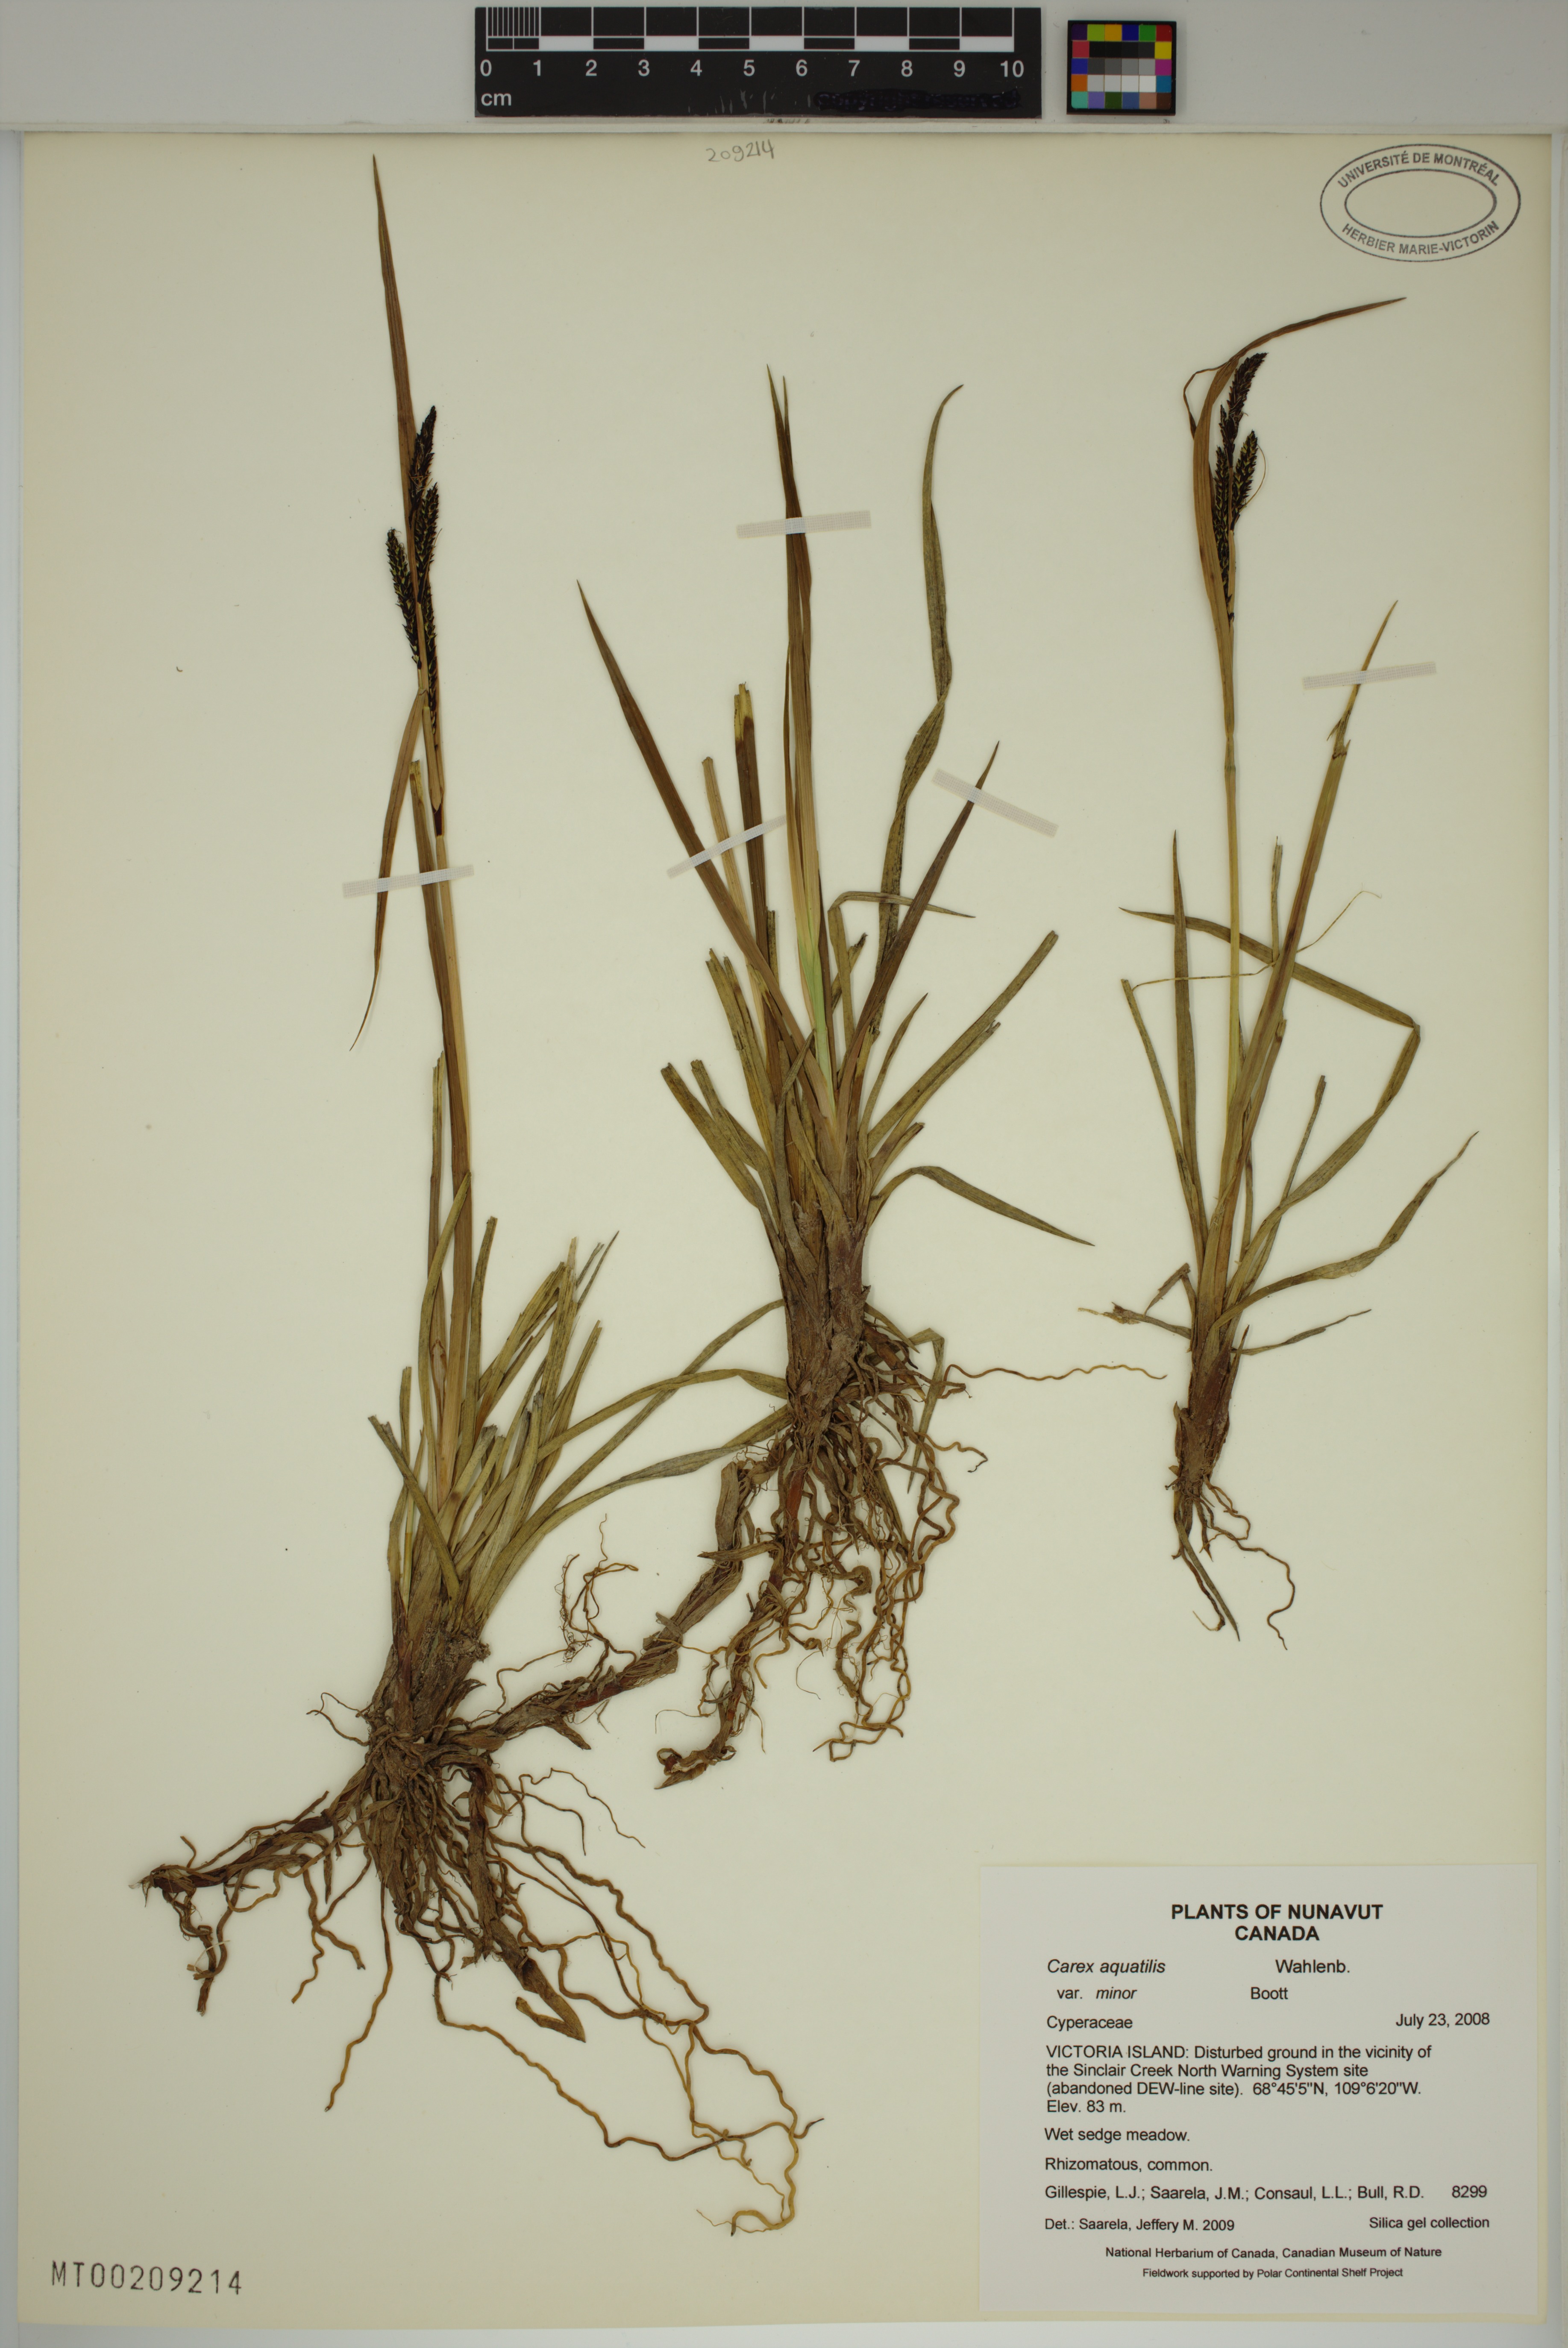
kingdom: Plantae
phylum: Tracheophyta
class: Liliopsida
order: Poales
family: Cyperaceae
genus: Carex
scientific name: Carex aquatilis
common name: Water sedge
